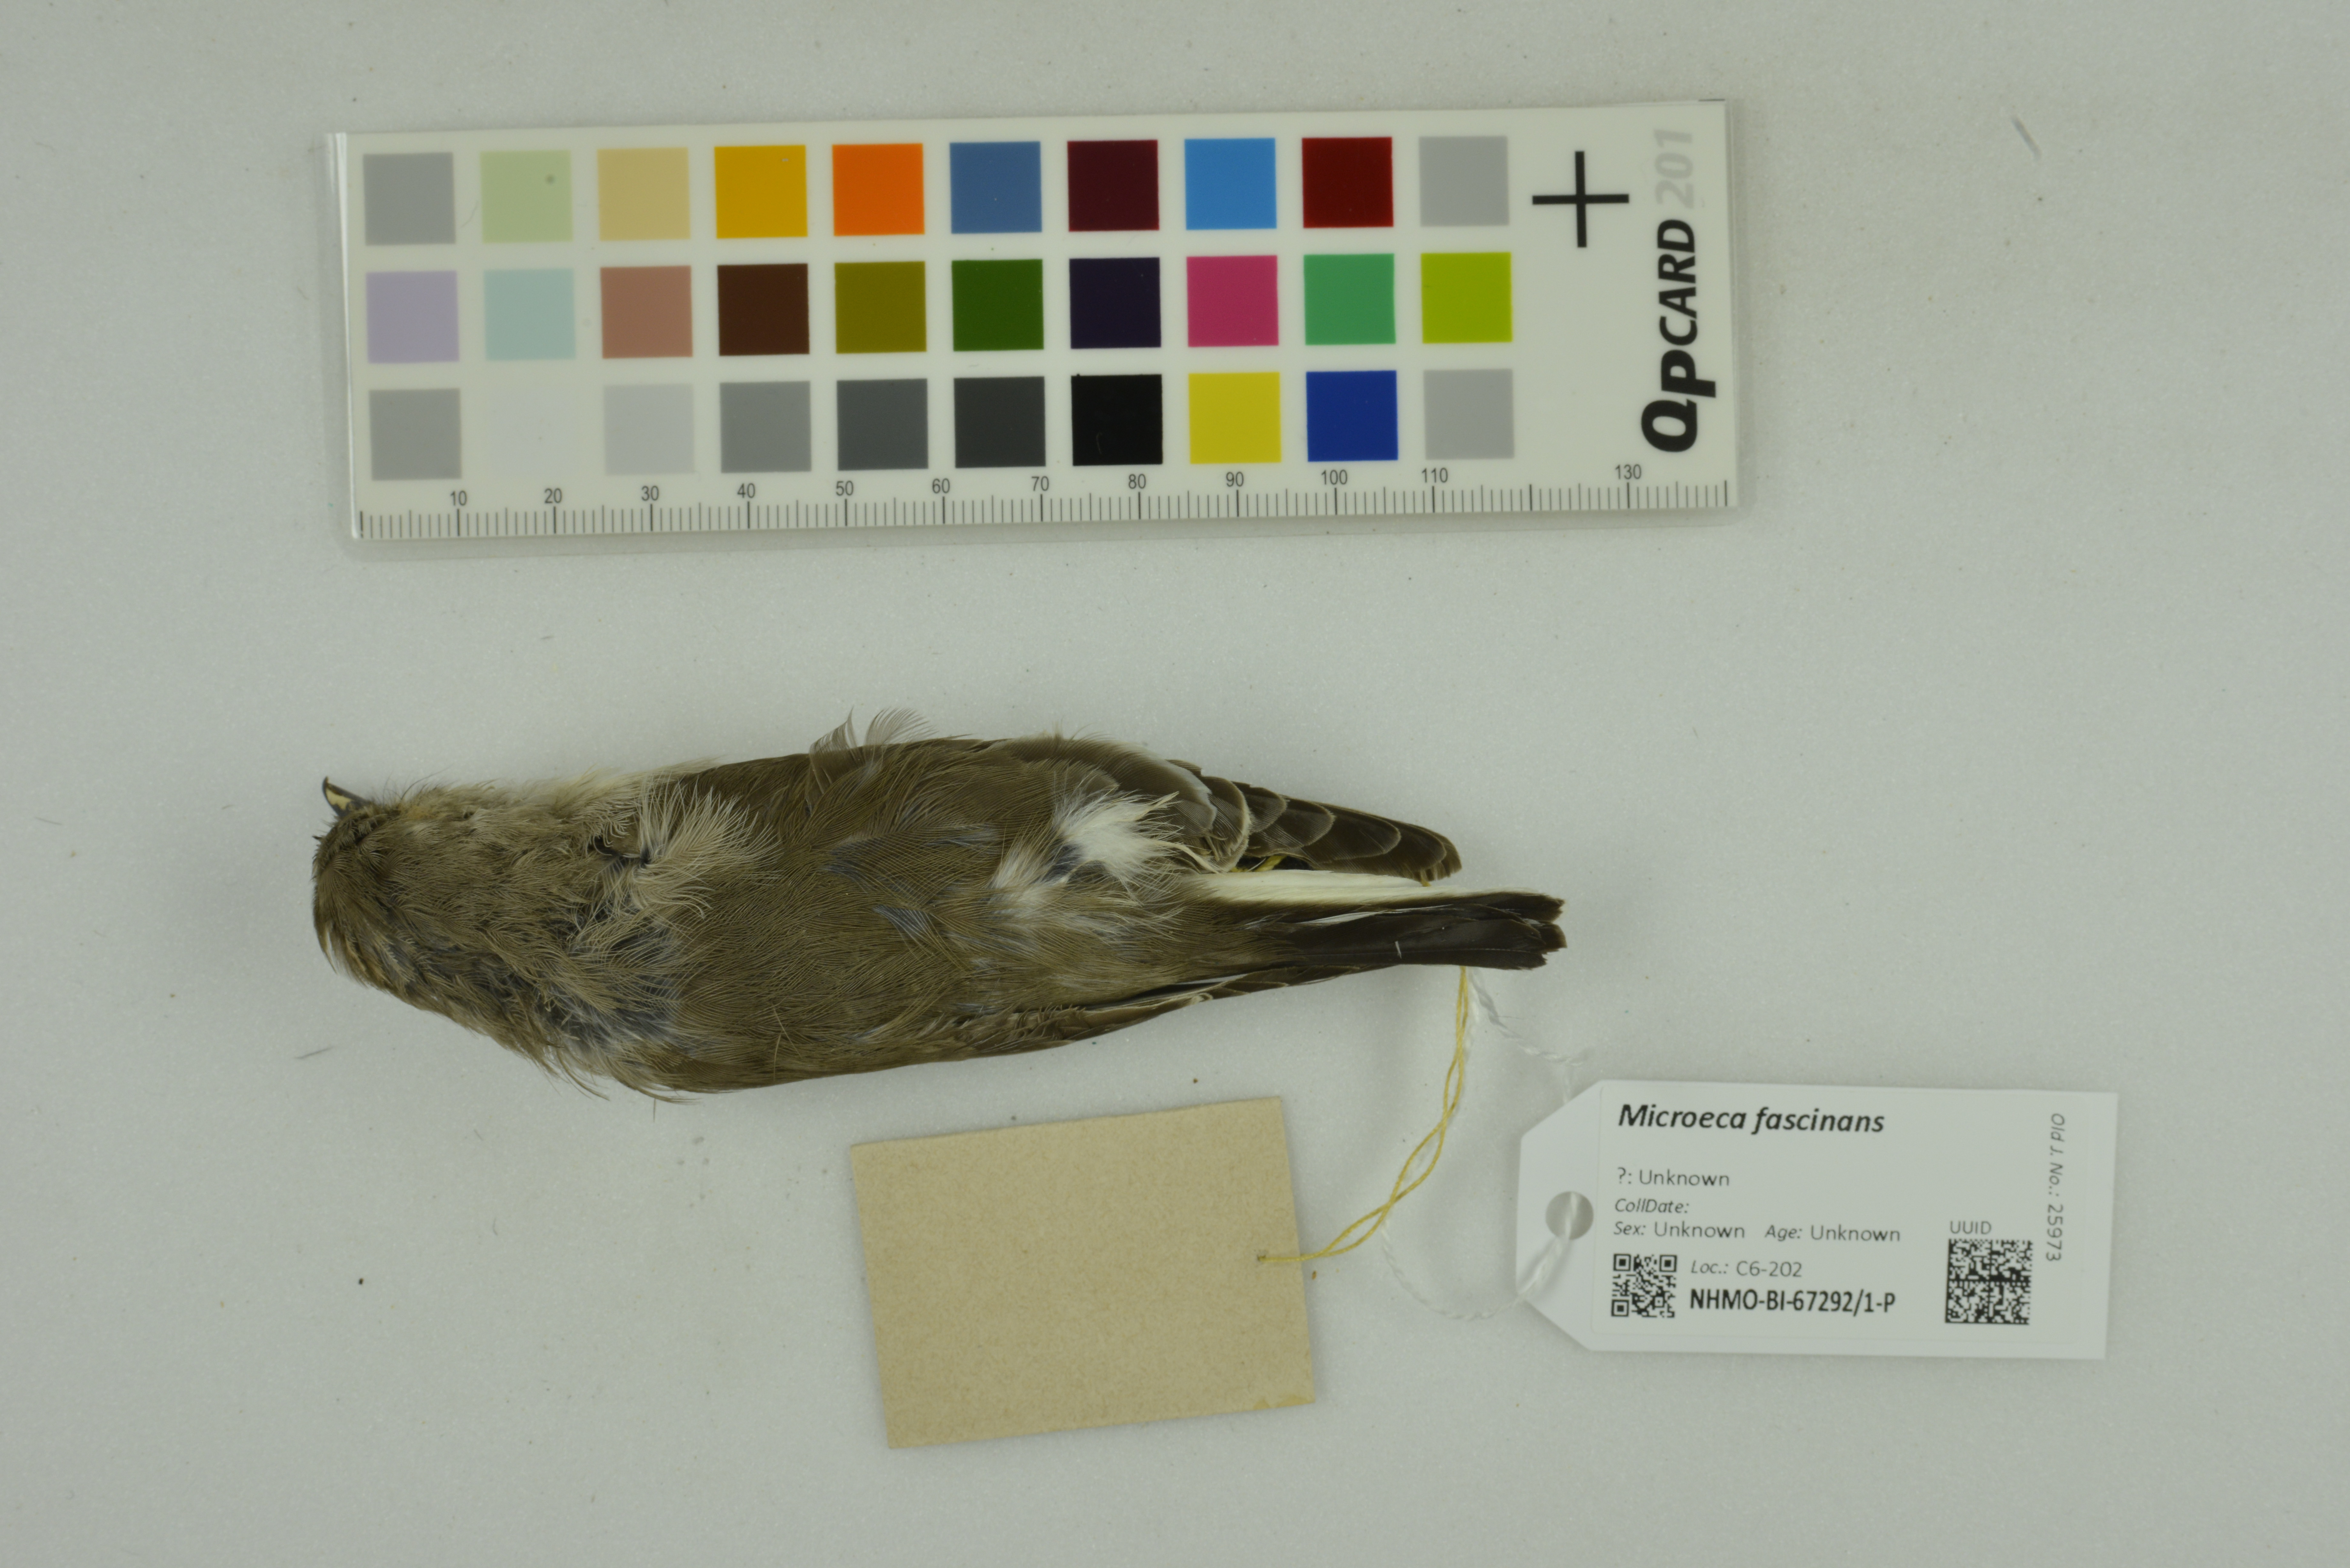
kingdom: Animalia
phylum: Chordata
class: Aves
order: Passeriformes
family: Petroicidae
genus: Microeca
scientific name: Microeca fascinans
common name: Jacky winter
